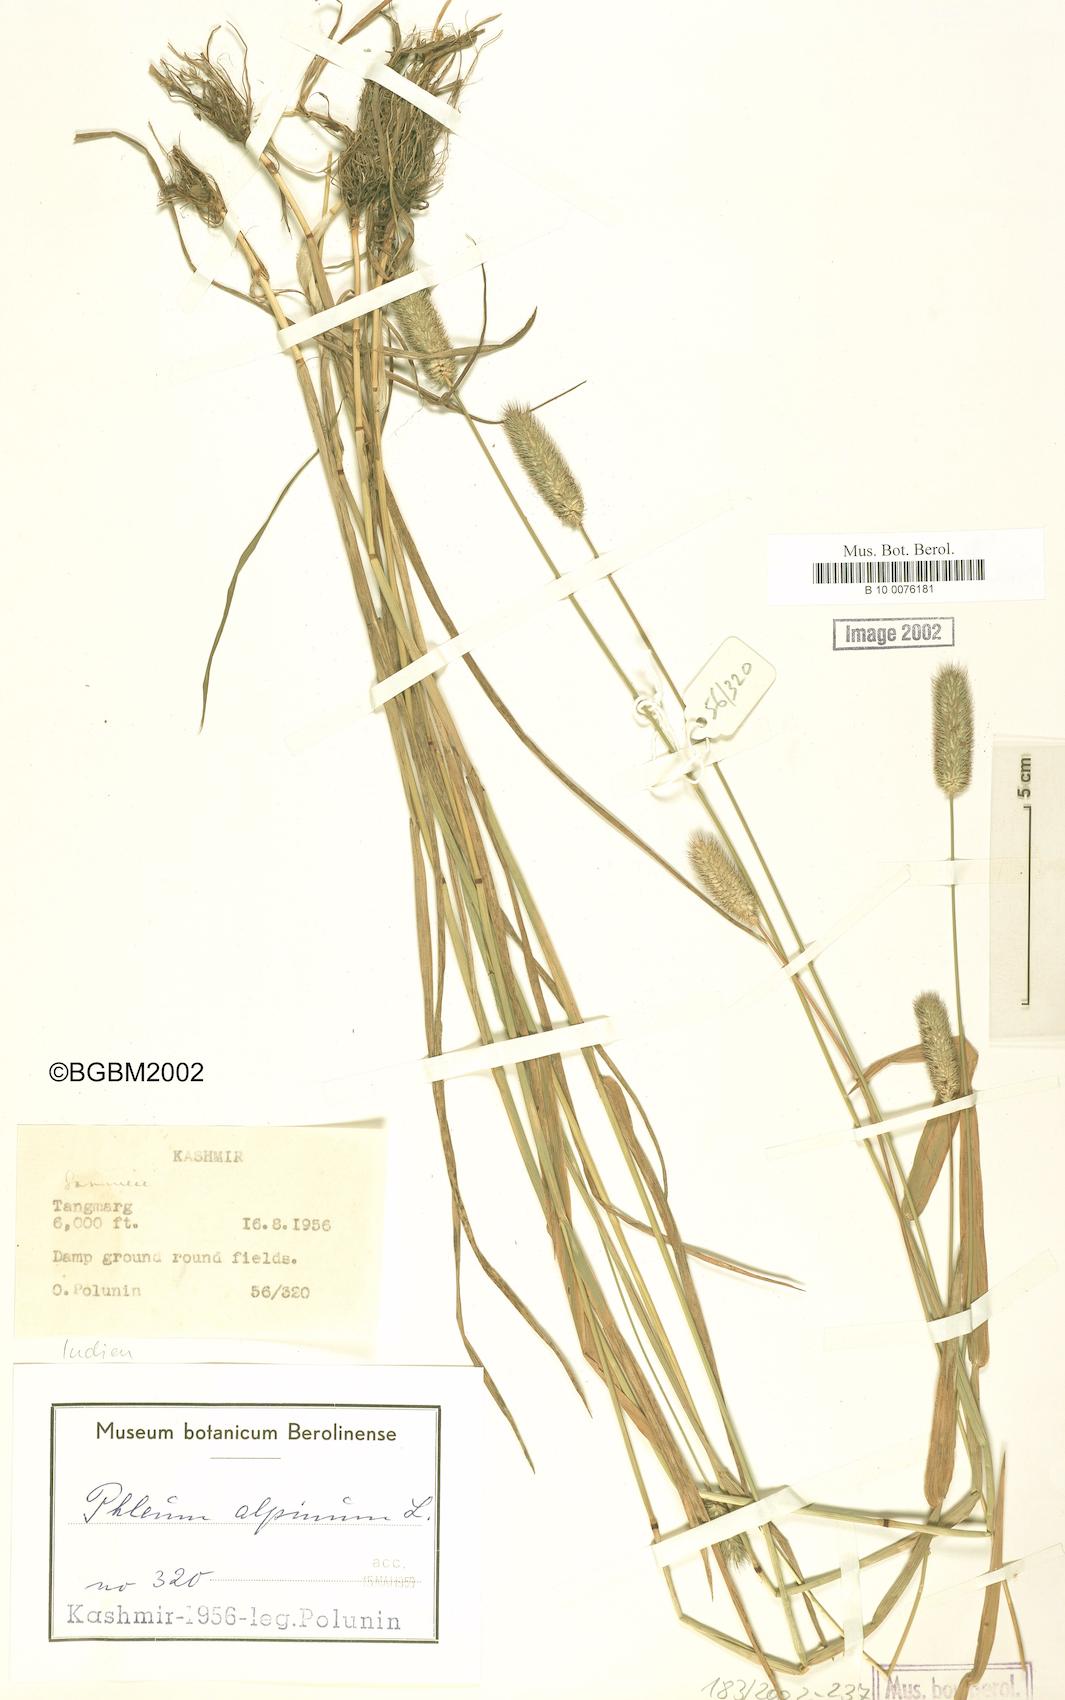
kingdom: Plantae
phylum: Tracheophyta
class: Liliopsida
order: Poales
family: Poaceae
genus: Phleum
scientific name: Phleum alpinum
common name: Alpine cat's-tail
